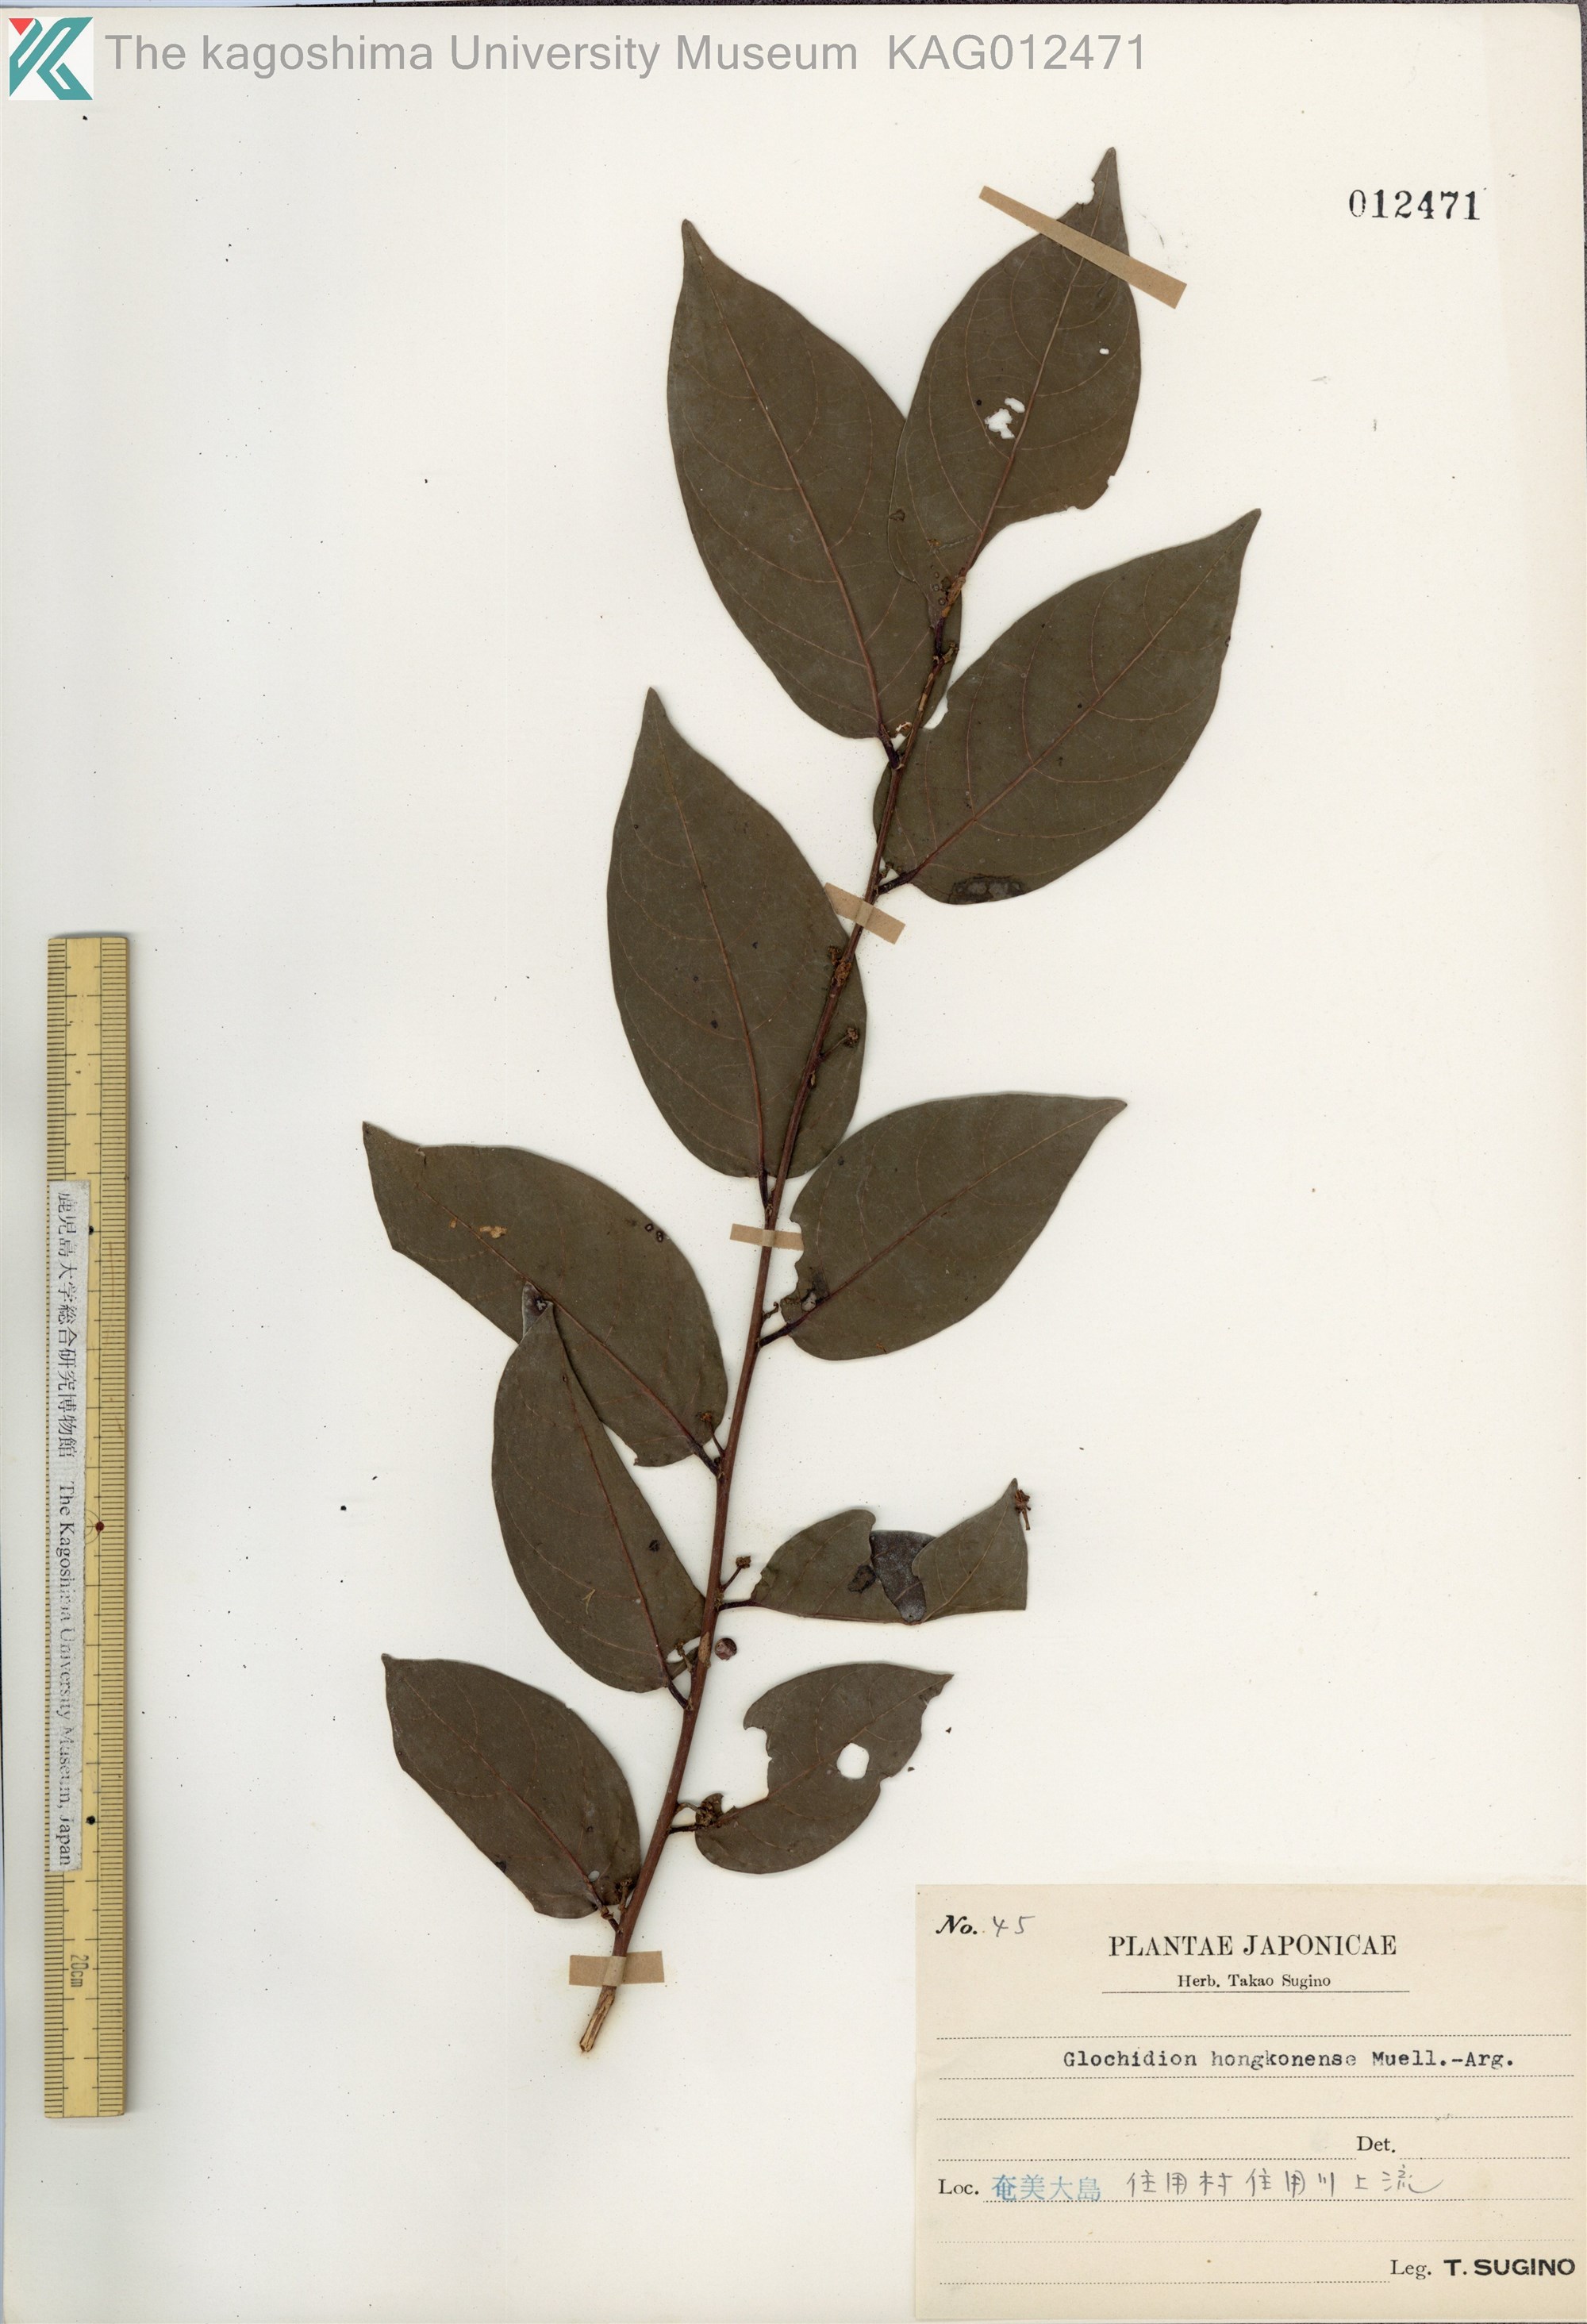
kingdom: Plantae
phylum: Tracheophyta
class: Magnoliopsida
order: Malpighiales
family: Phyllanthaceae
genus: Glochidion
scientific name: Glochidion zeylanicum
